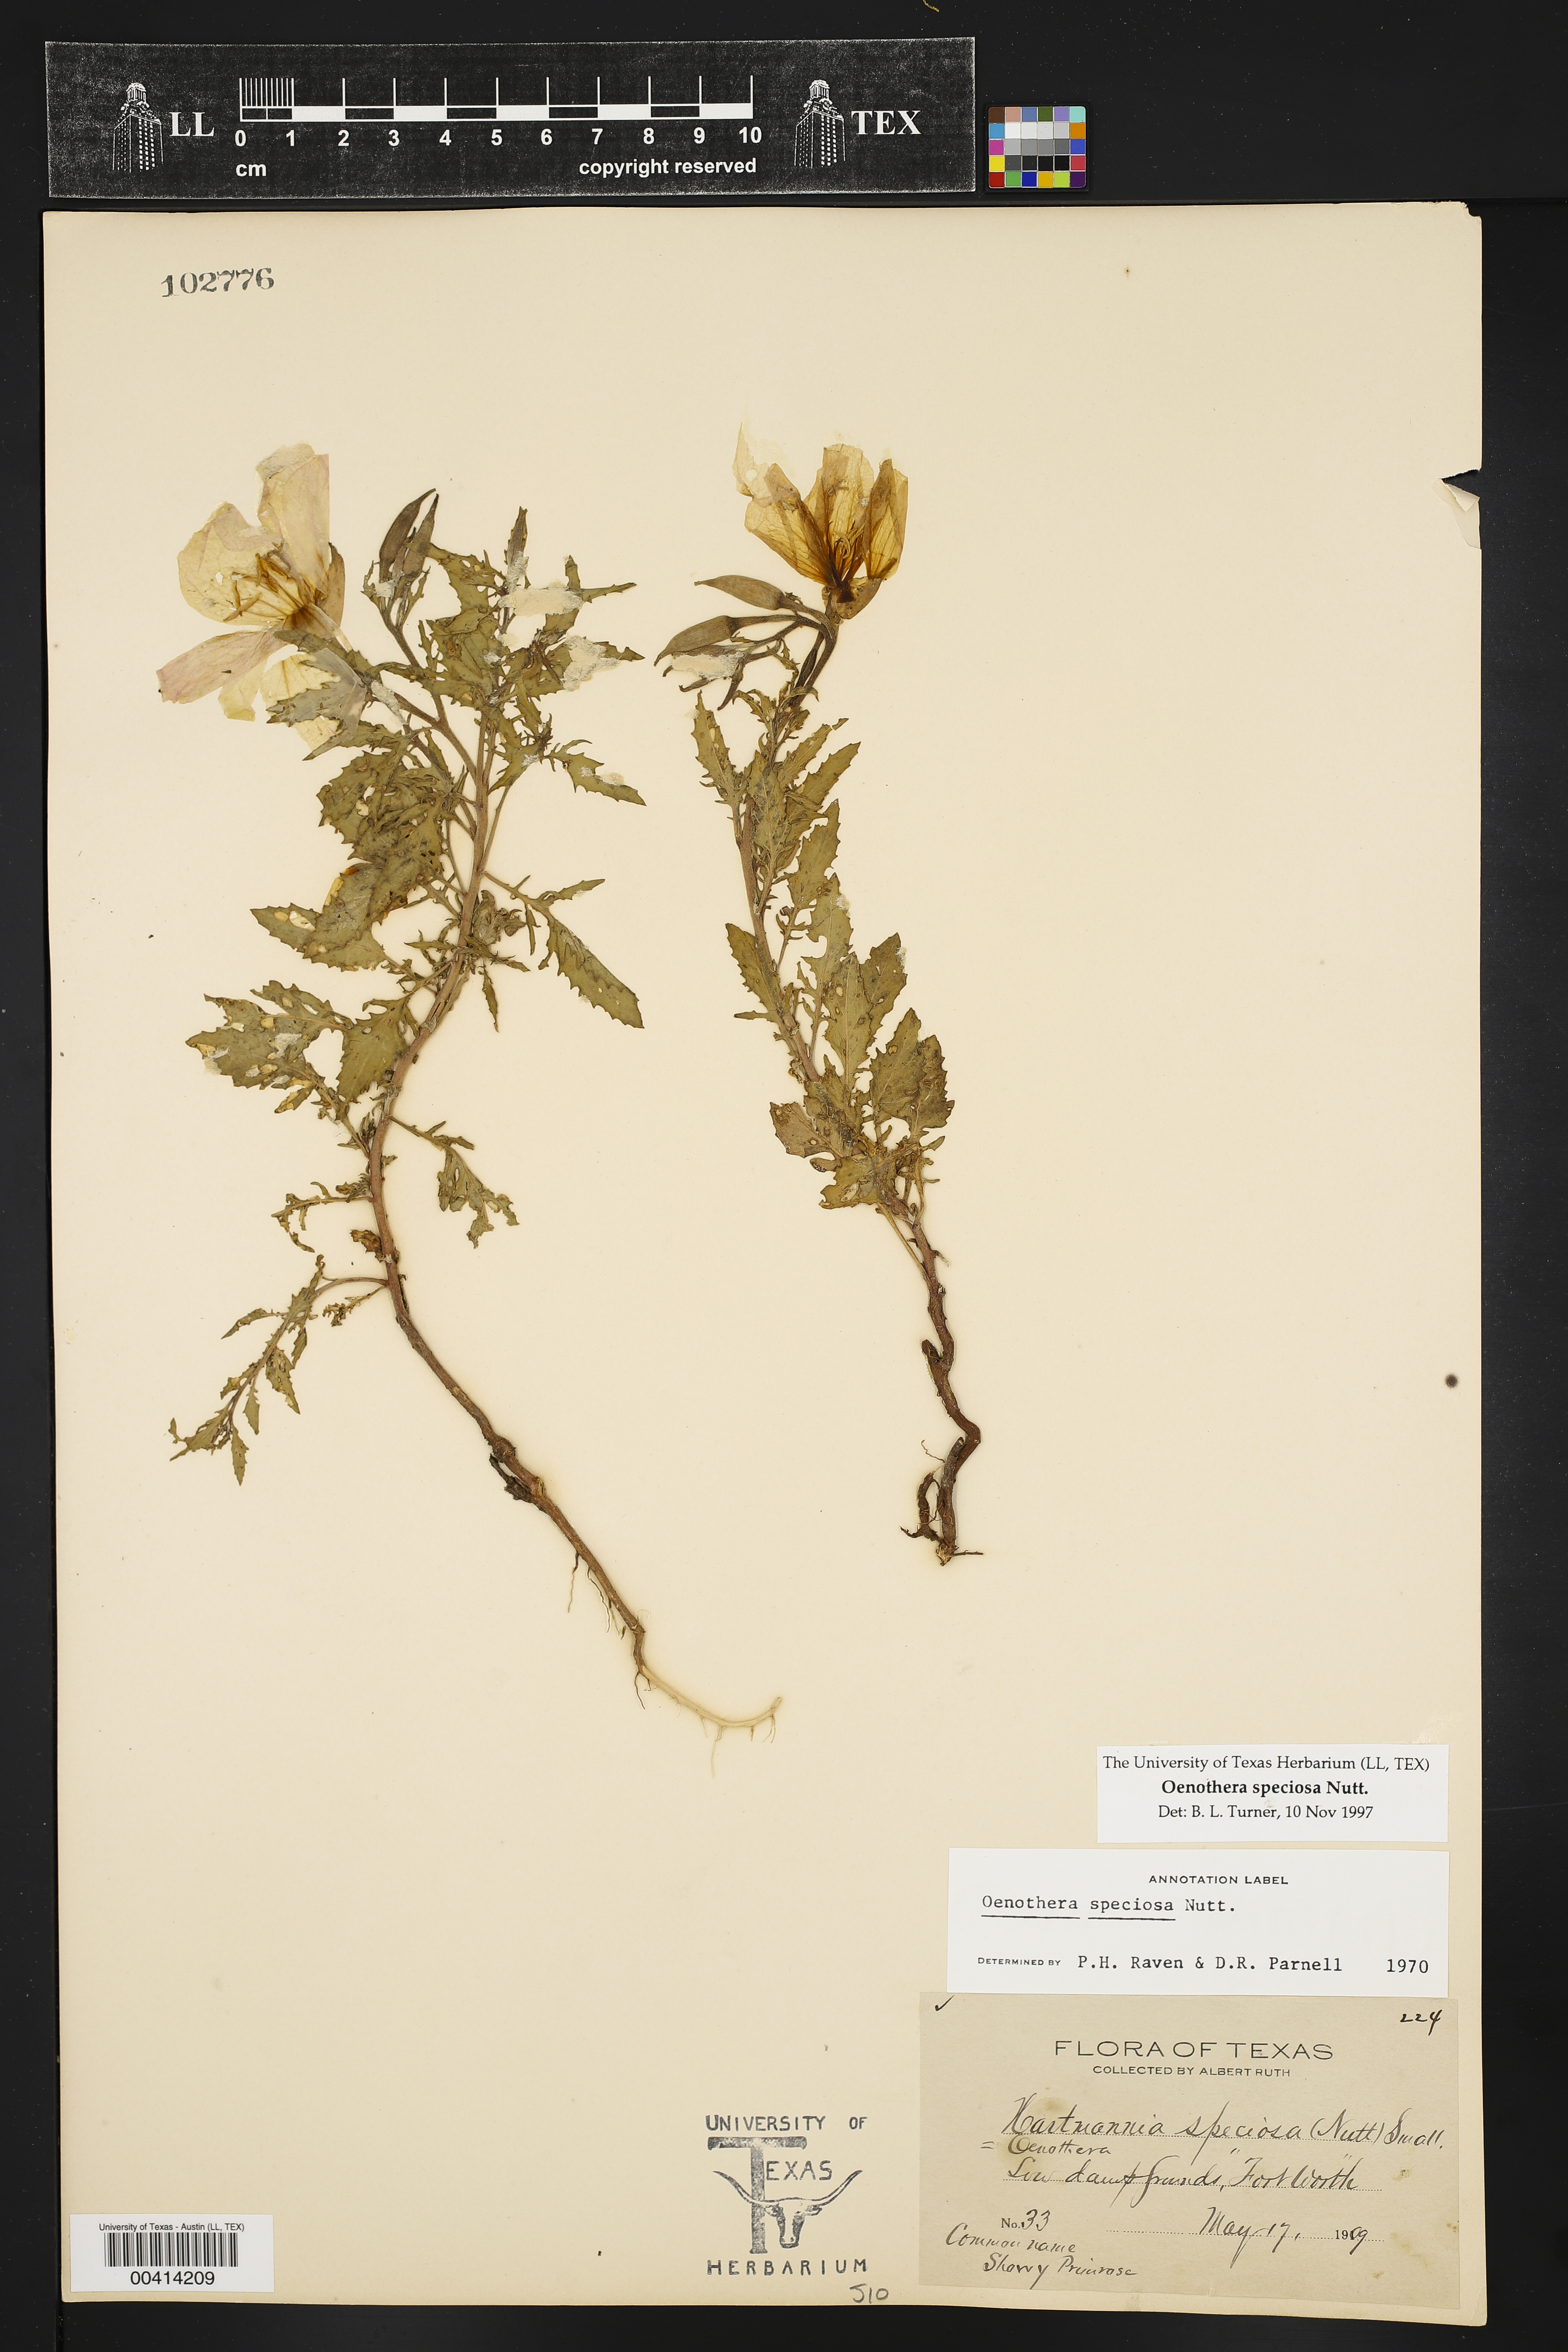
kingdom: Plantae
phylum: Tracheophyta
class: Magnoliopsida
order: Myrtales
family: Onagraceae
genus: Oenothera
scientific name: Oenothera speciosa
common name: White evening-primrose
